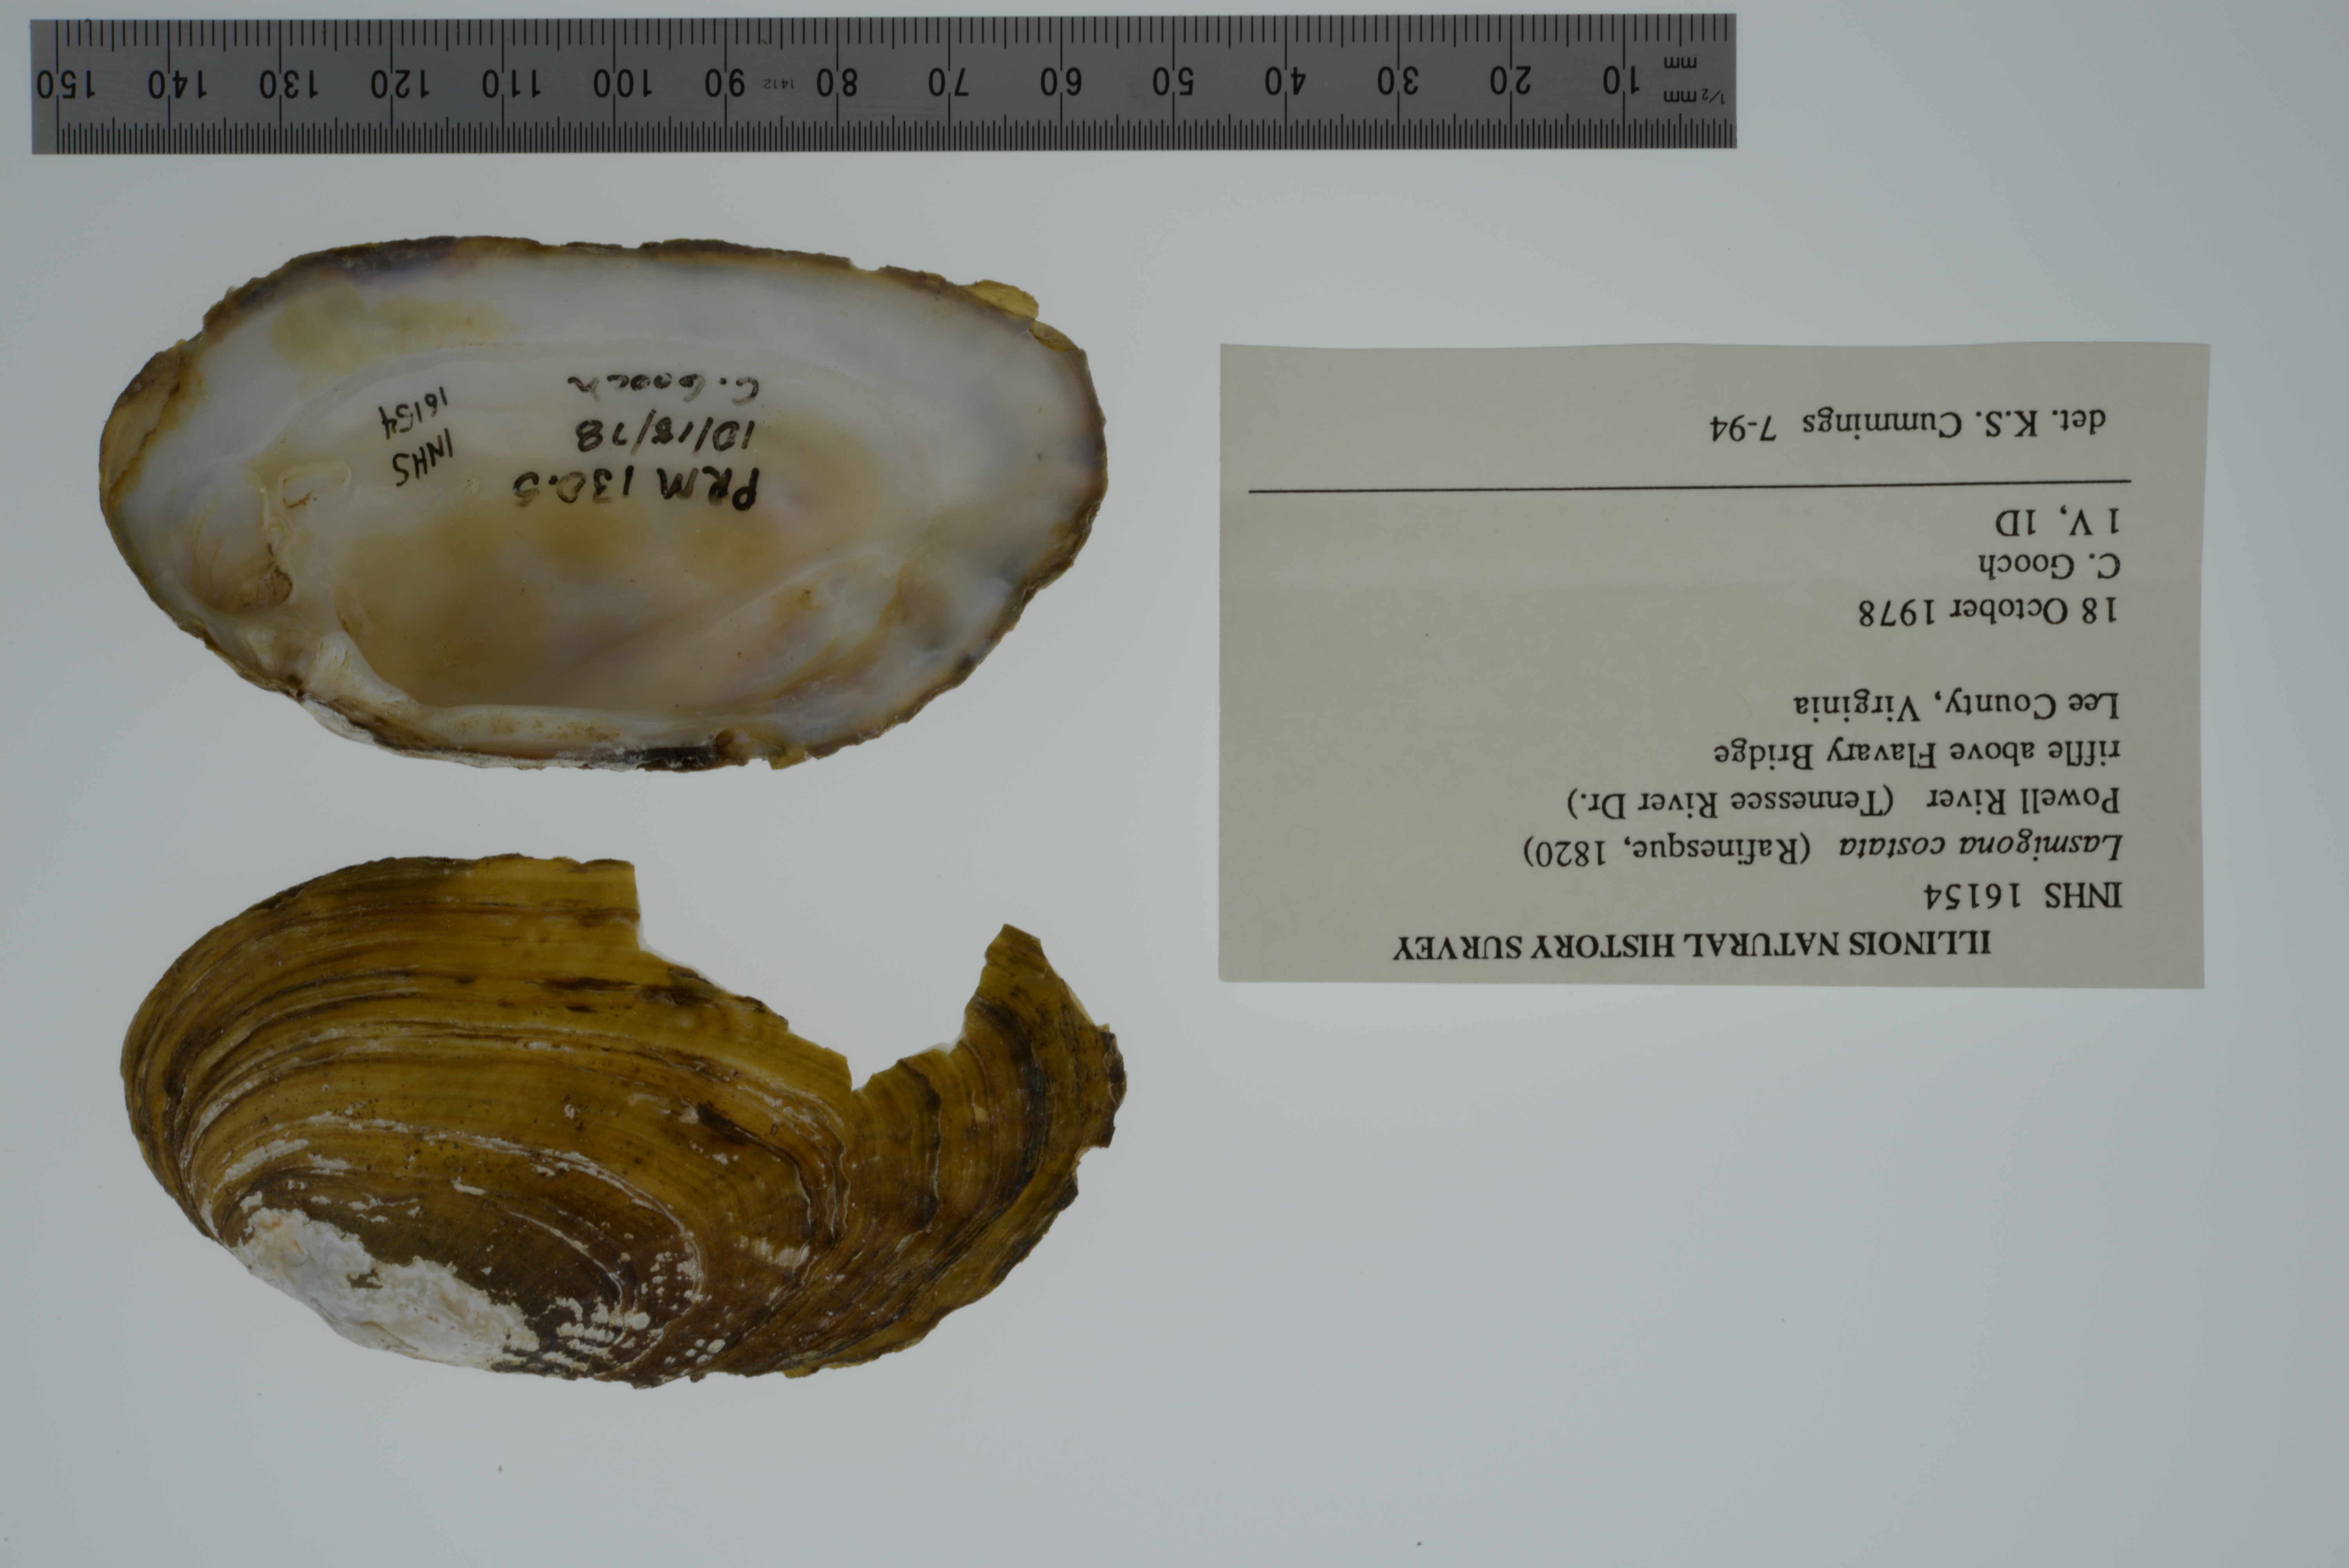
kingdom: Animalia
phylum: Mollusca
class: Bivalvia
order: Unionida
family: Unionidae
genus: Lasmigona
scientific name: Lasmigona costata
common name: Flutedshell
